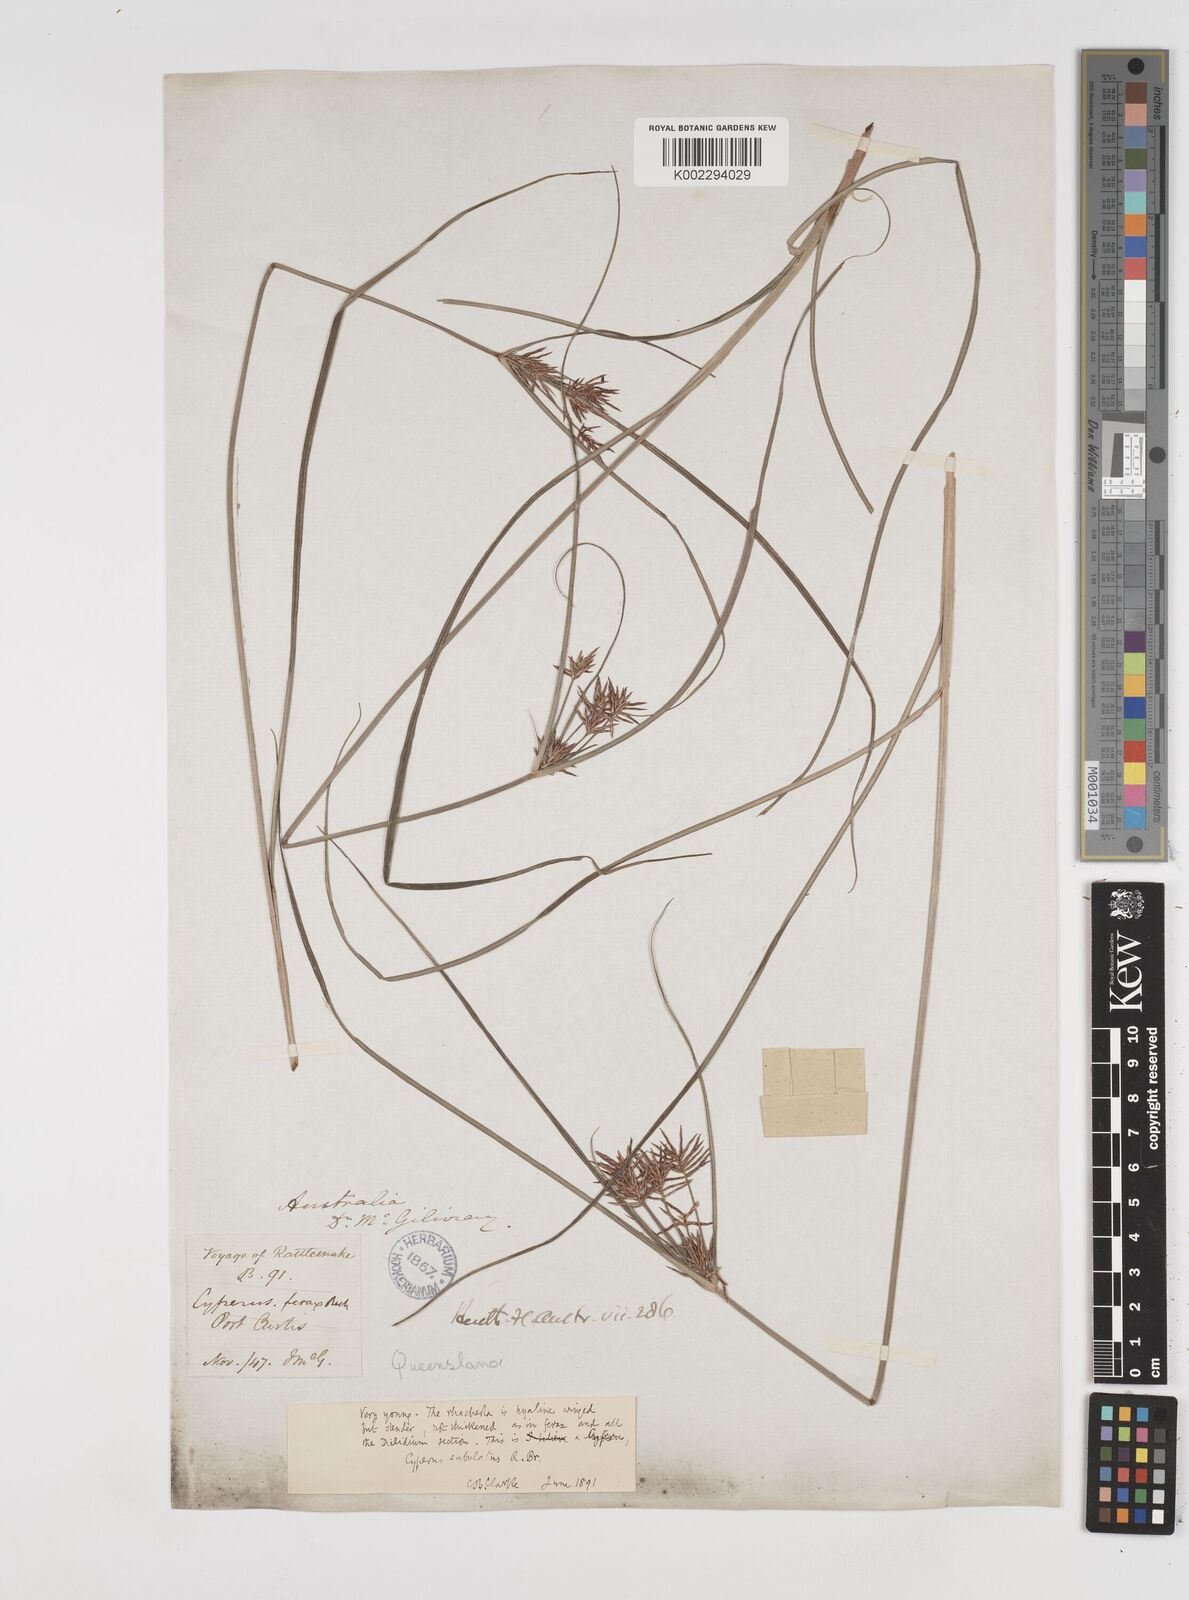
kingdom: Plantae
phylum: Tracheophyta
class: Liliopsida
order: Poales
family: Cyperaceae
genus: Cyperus
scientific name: Cyperus subulatus
